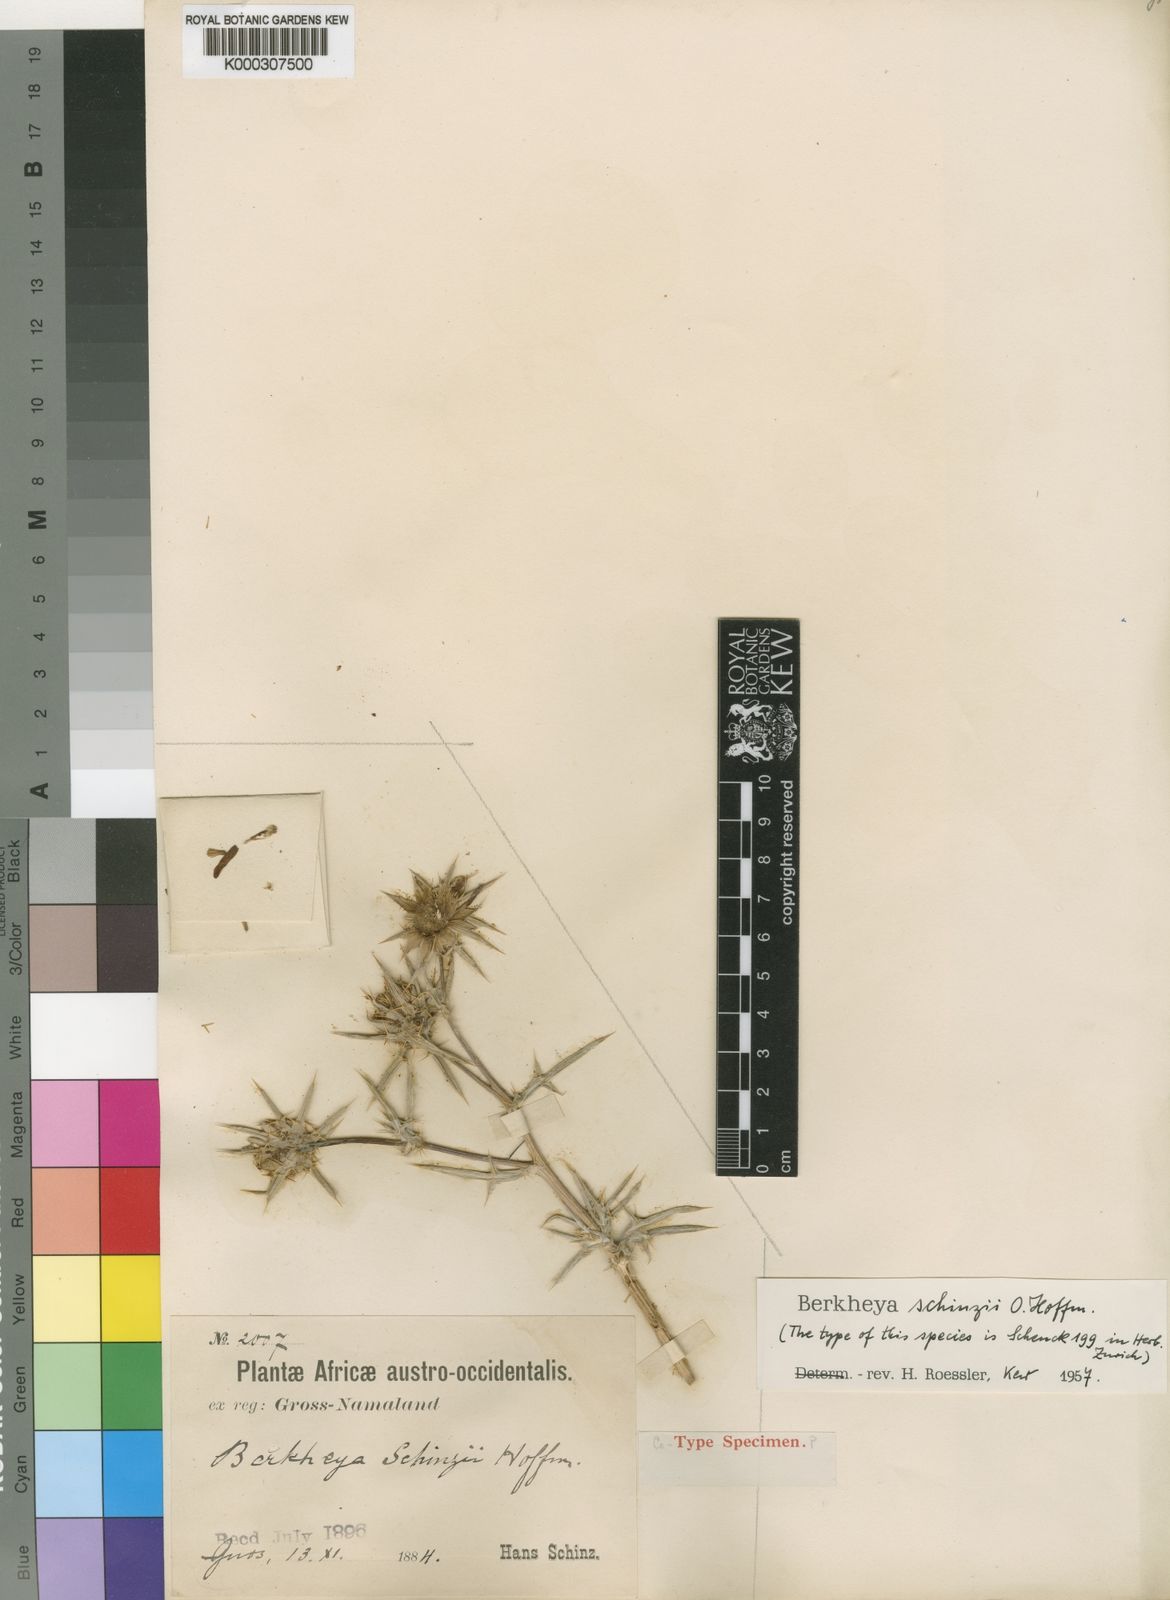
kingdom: Plantae
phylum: Tracheophyta
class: Magnoliopsida
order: Asterales
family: Asteraceae
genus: Roessleria
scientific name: Roessleria gorterioides
